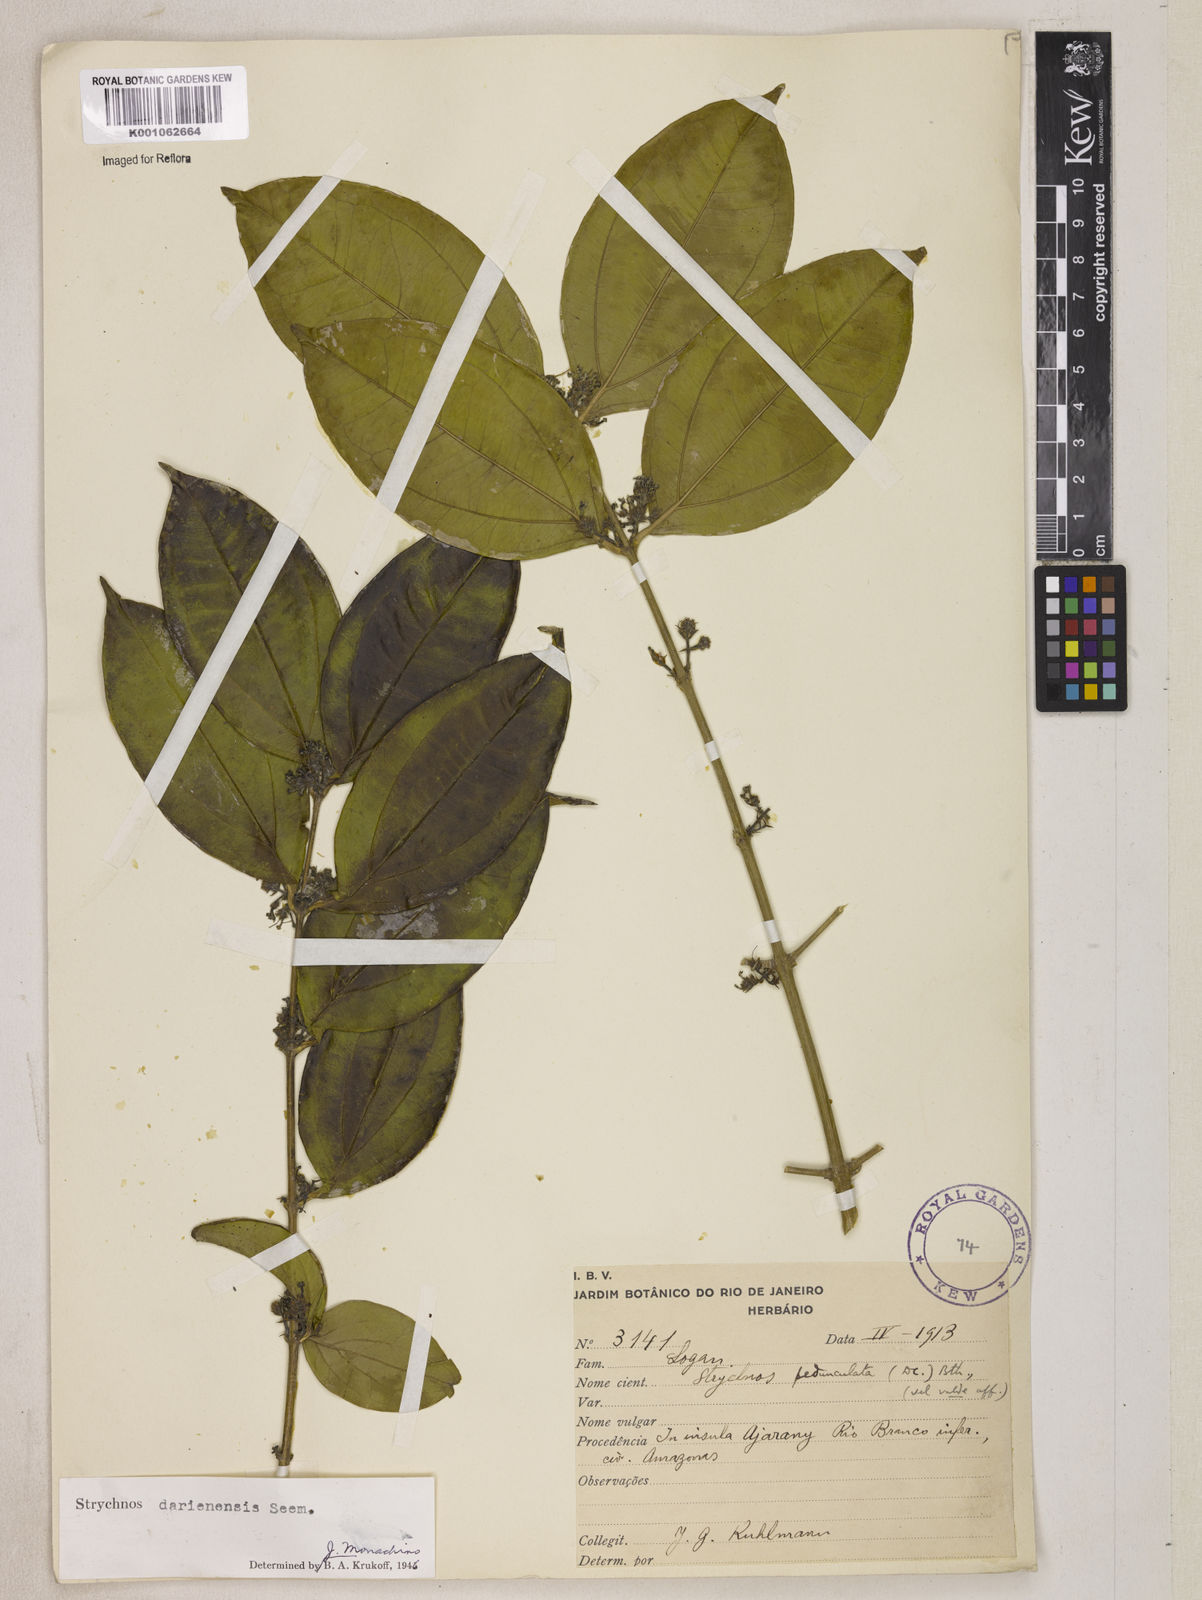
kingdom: Plantae
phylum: Tracheophyta
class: Magnoliopsida
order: Gentianales
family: Loganiaceae
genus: Strychnos
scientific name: Strychnos darienensis
